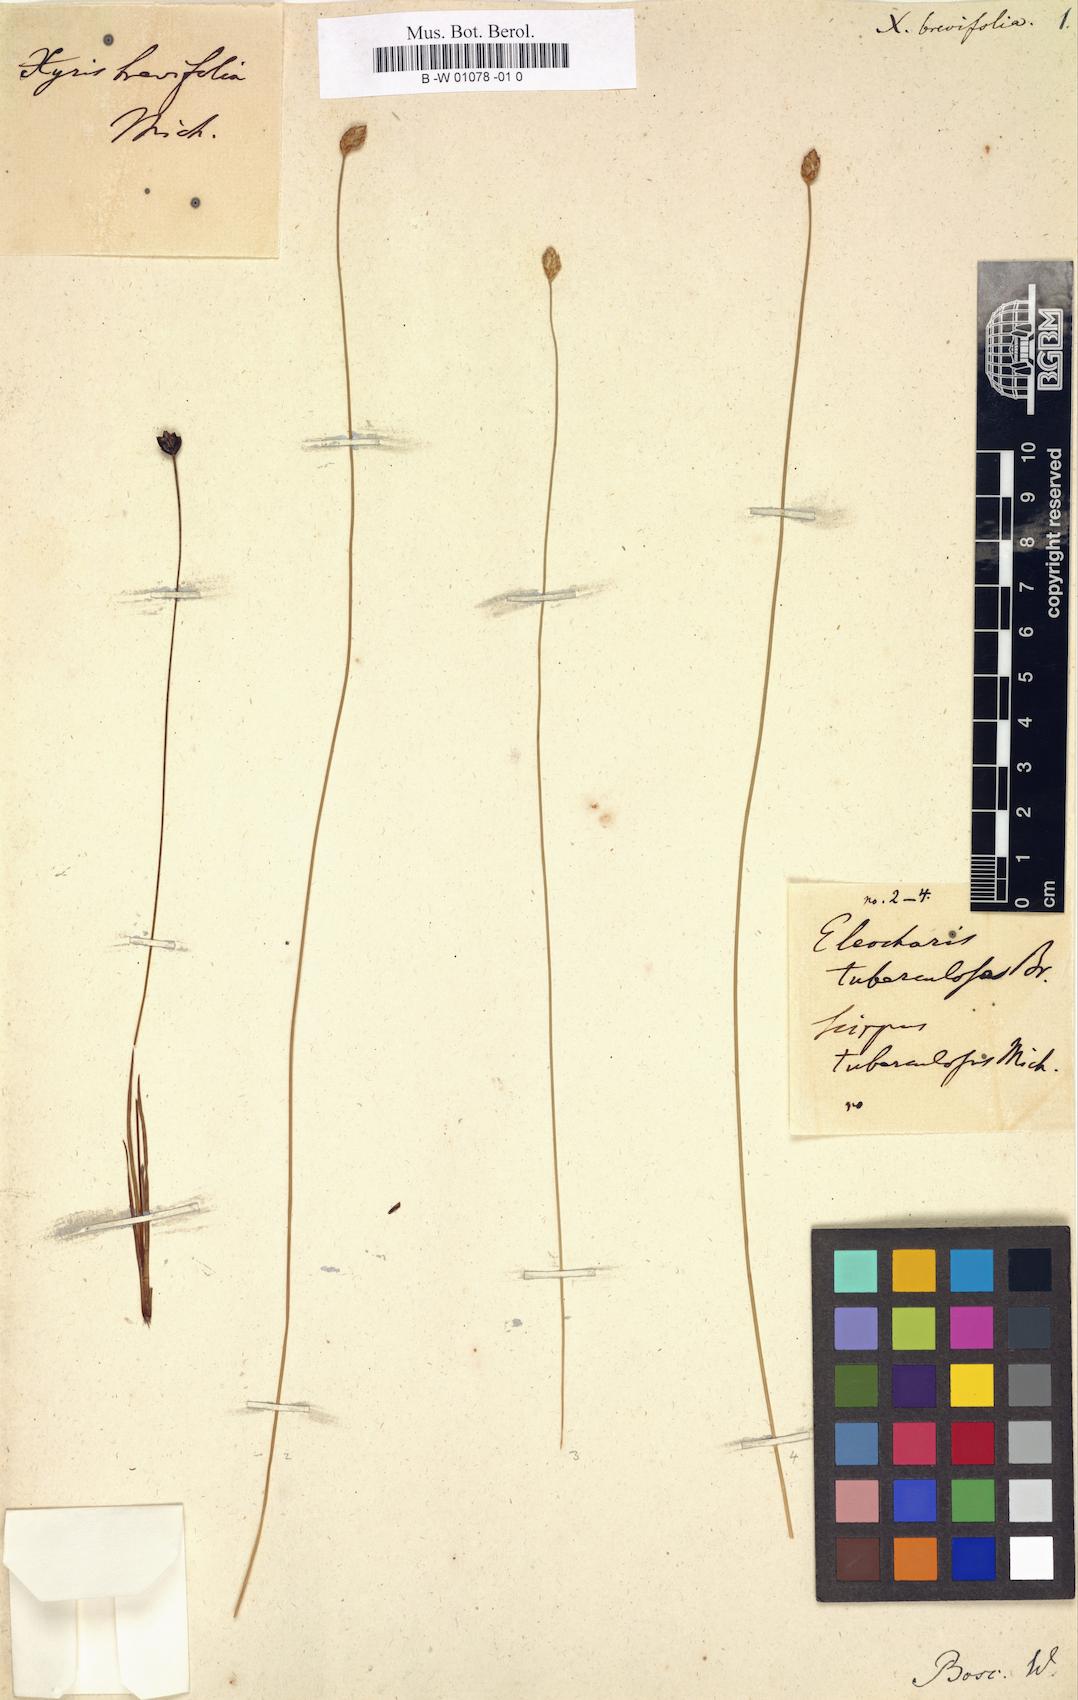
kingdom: Plantae
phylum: Tracheophyta
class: Liliopsida
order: Poales
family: Xyridaceae
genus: Xyris
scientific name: Xyris brevifolia
